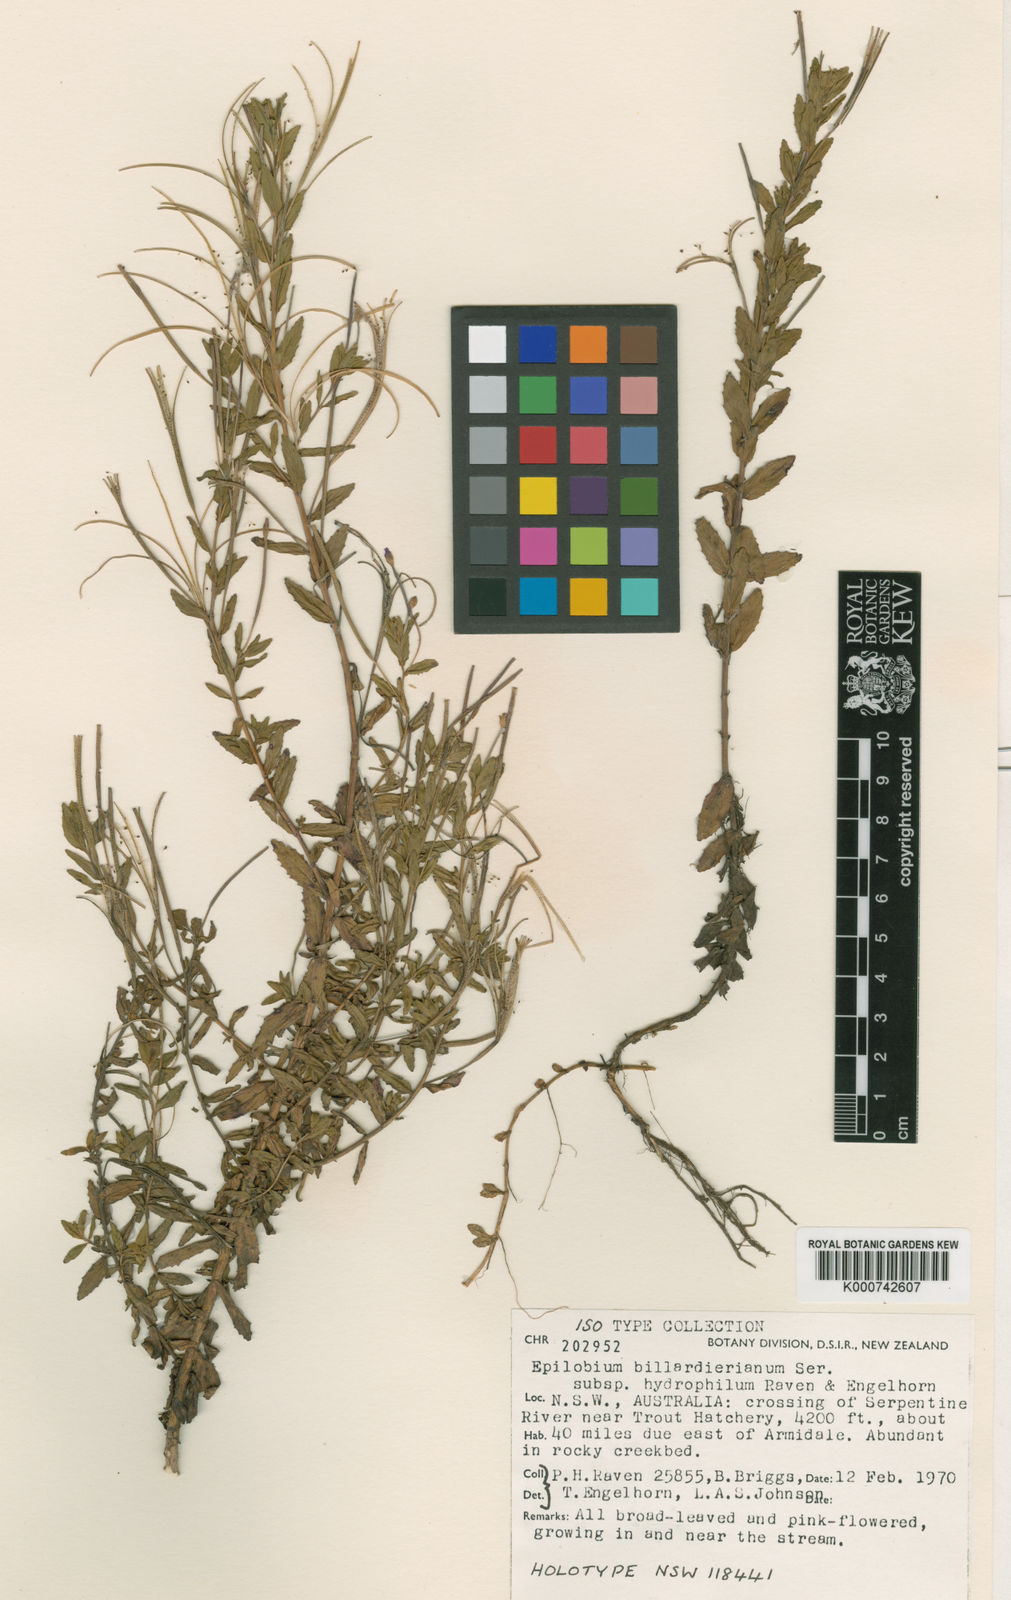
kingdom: Plantae
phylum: Tracheophyta
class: Magnoliopsida
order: Myrtales
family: Onagraceae
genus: Epilobium
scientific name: Epilobium billardierianum
